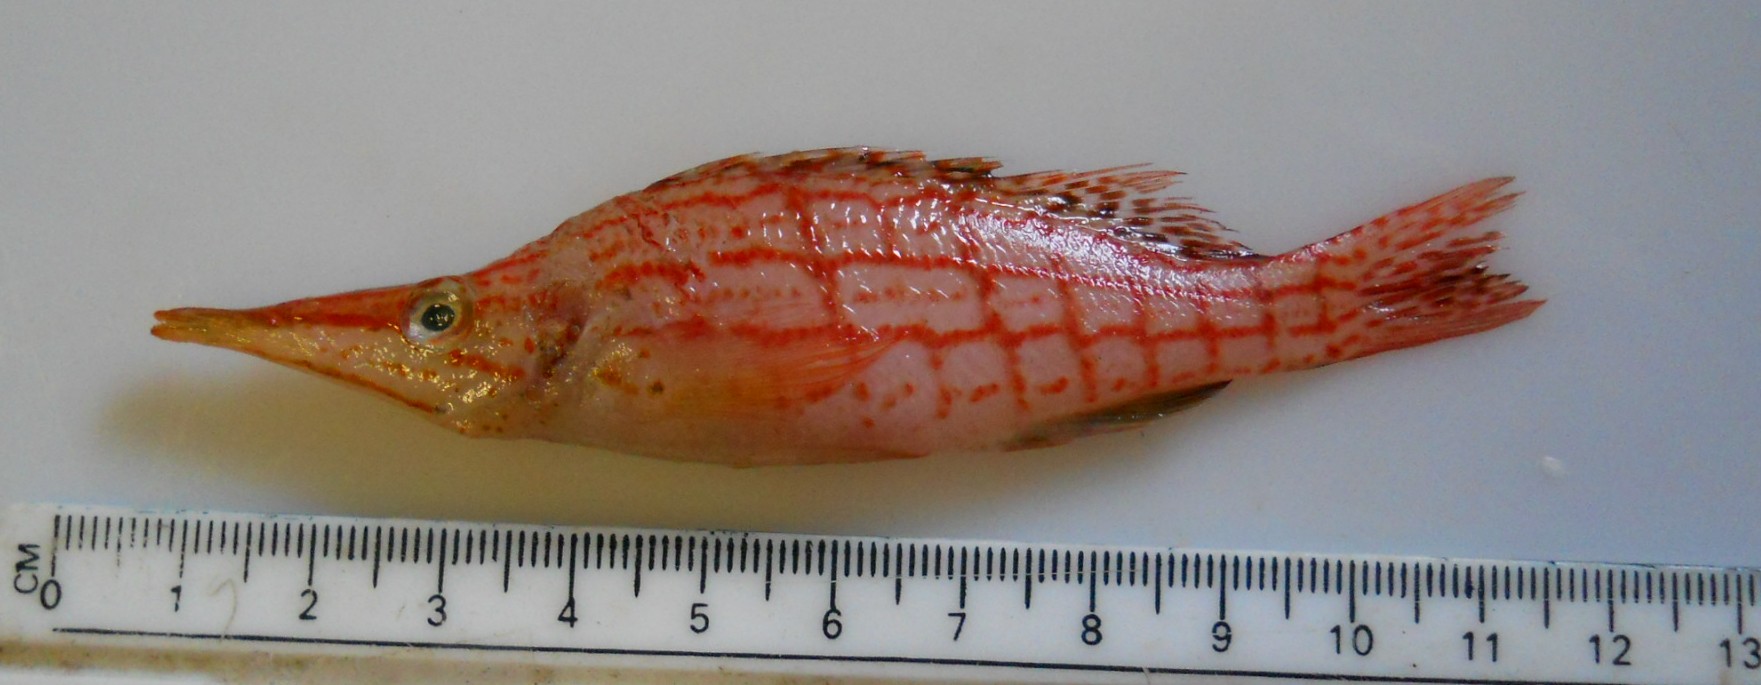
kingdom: Animalia
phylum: Chordata
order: Perciformes
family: Cirrhitidae
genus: Oxycirrhites
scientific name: Oxycirrhites typus
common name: Longnose hawkfish
